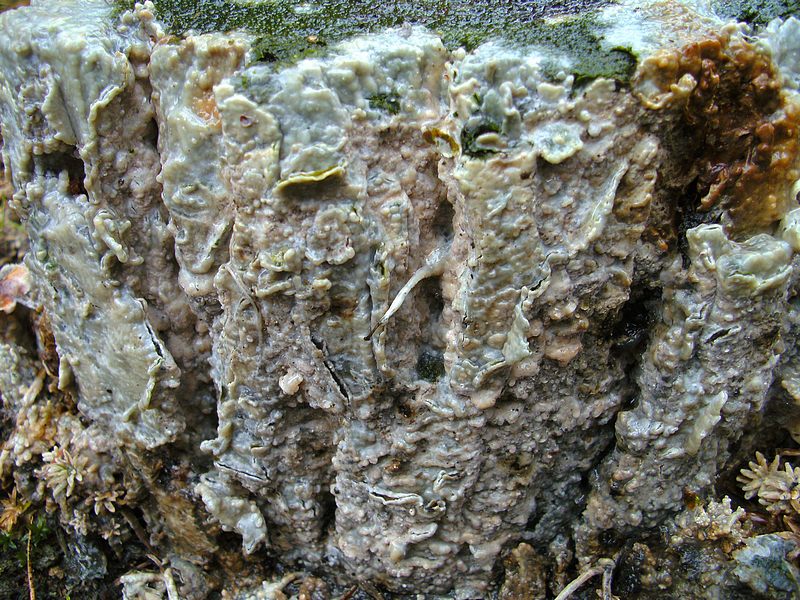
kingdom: Fungi
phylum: Basidiomycota
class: Agaricomycetes
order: Polyporales
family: Phanerochaetaceae
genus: Phlebiopsis
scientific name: Phlebiopsis gigantea
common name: kæmpebarksvamp
